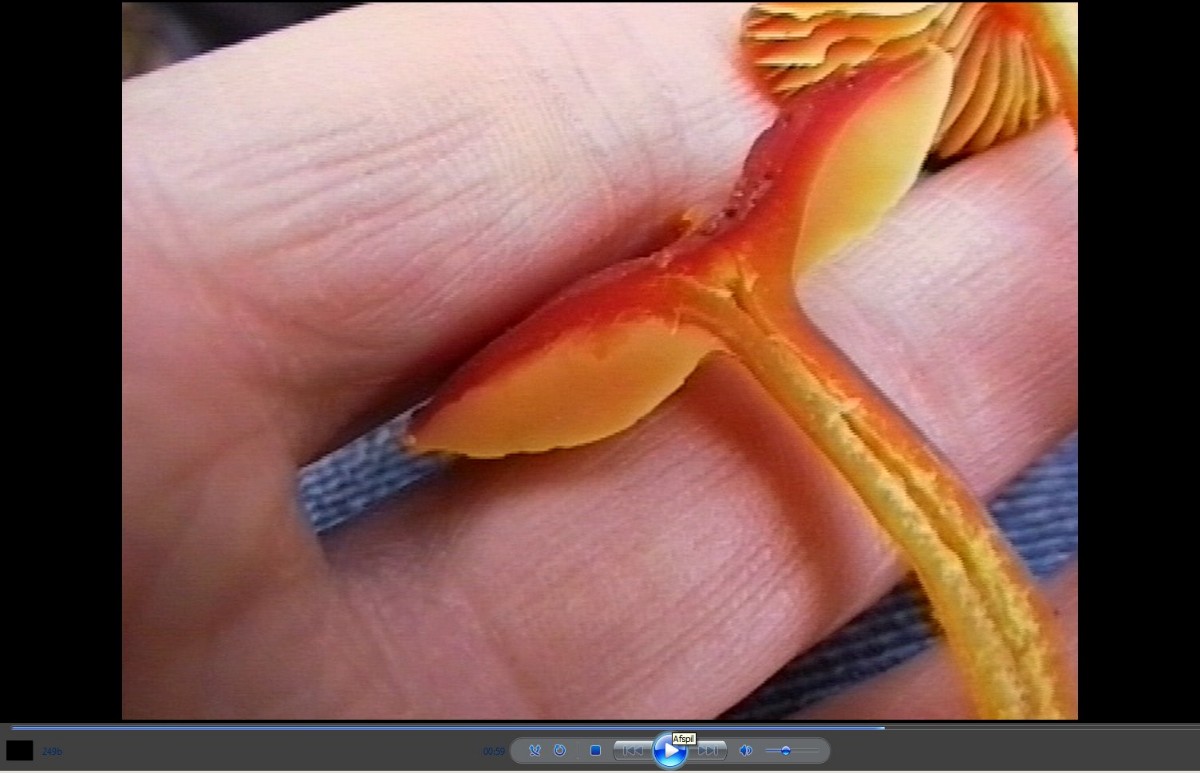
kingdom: Fungi
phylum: Basidiomycota
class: Agaricomycetes
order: Agaricales
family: Hygrophoraceae
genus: Hygrocybe
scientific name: Hygrocybe coccinea
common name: cinnober-vokshat
